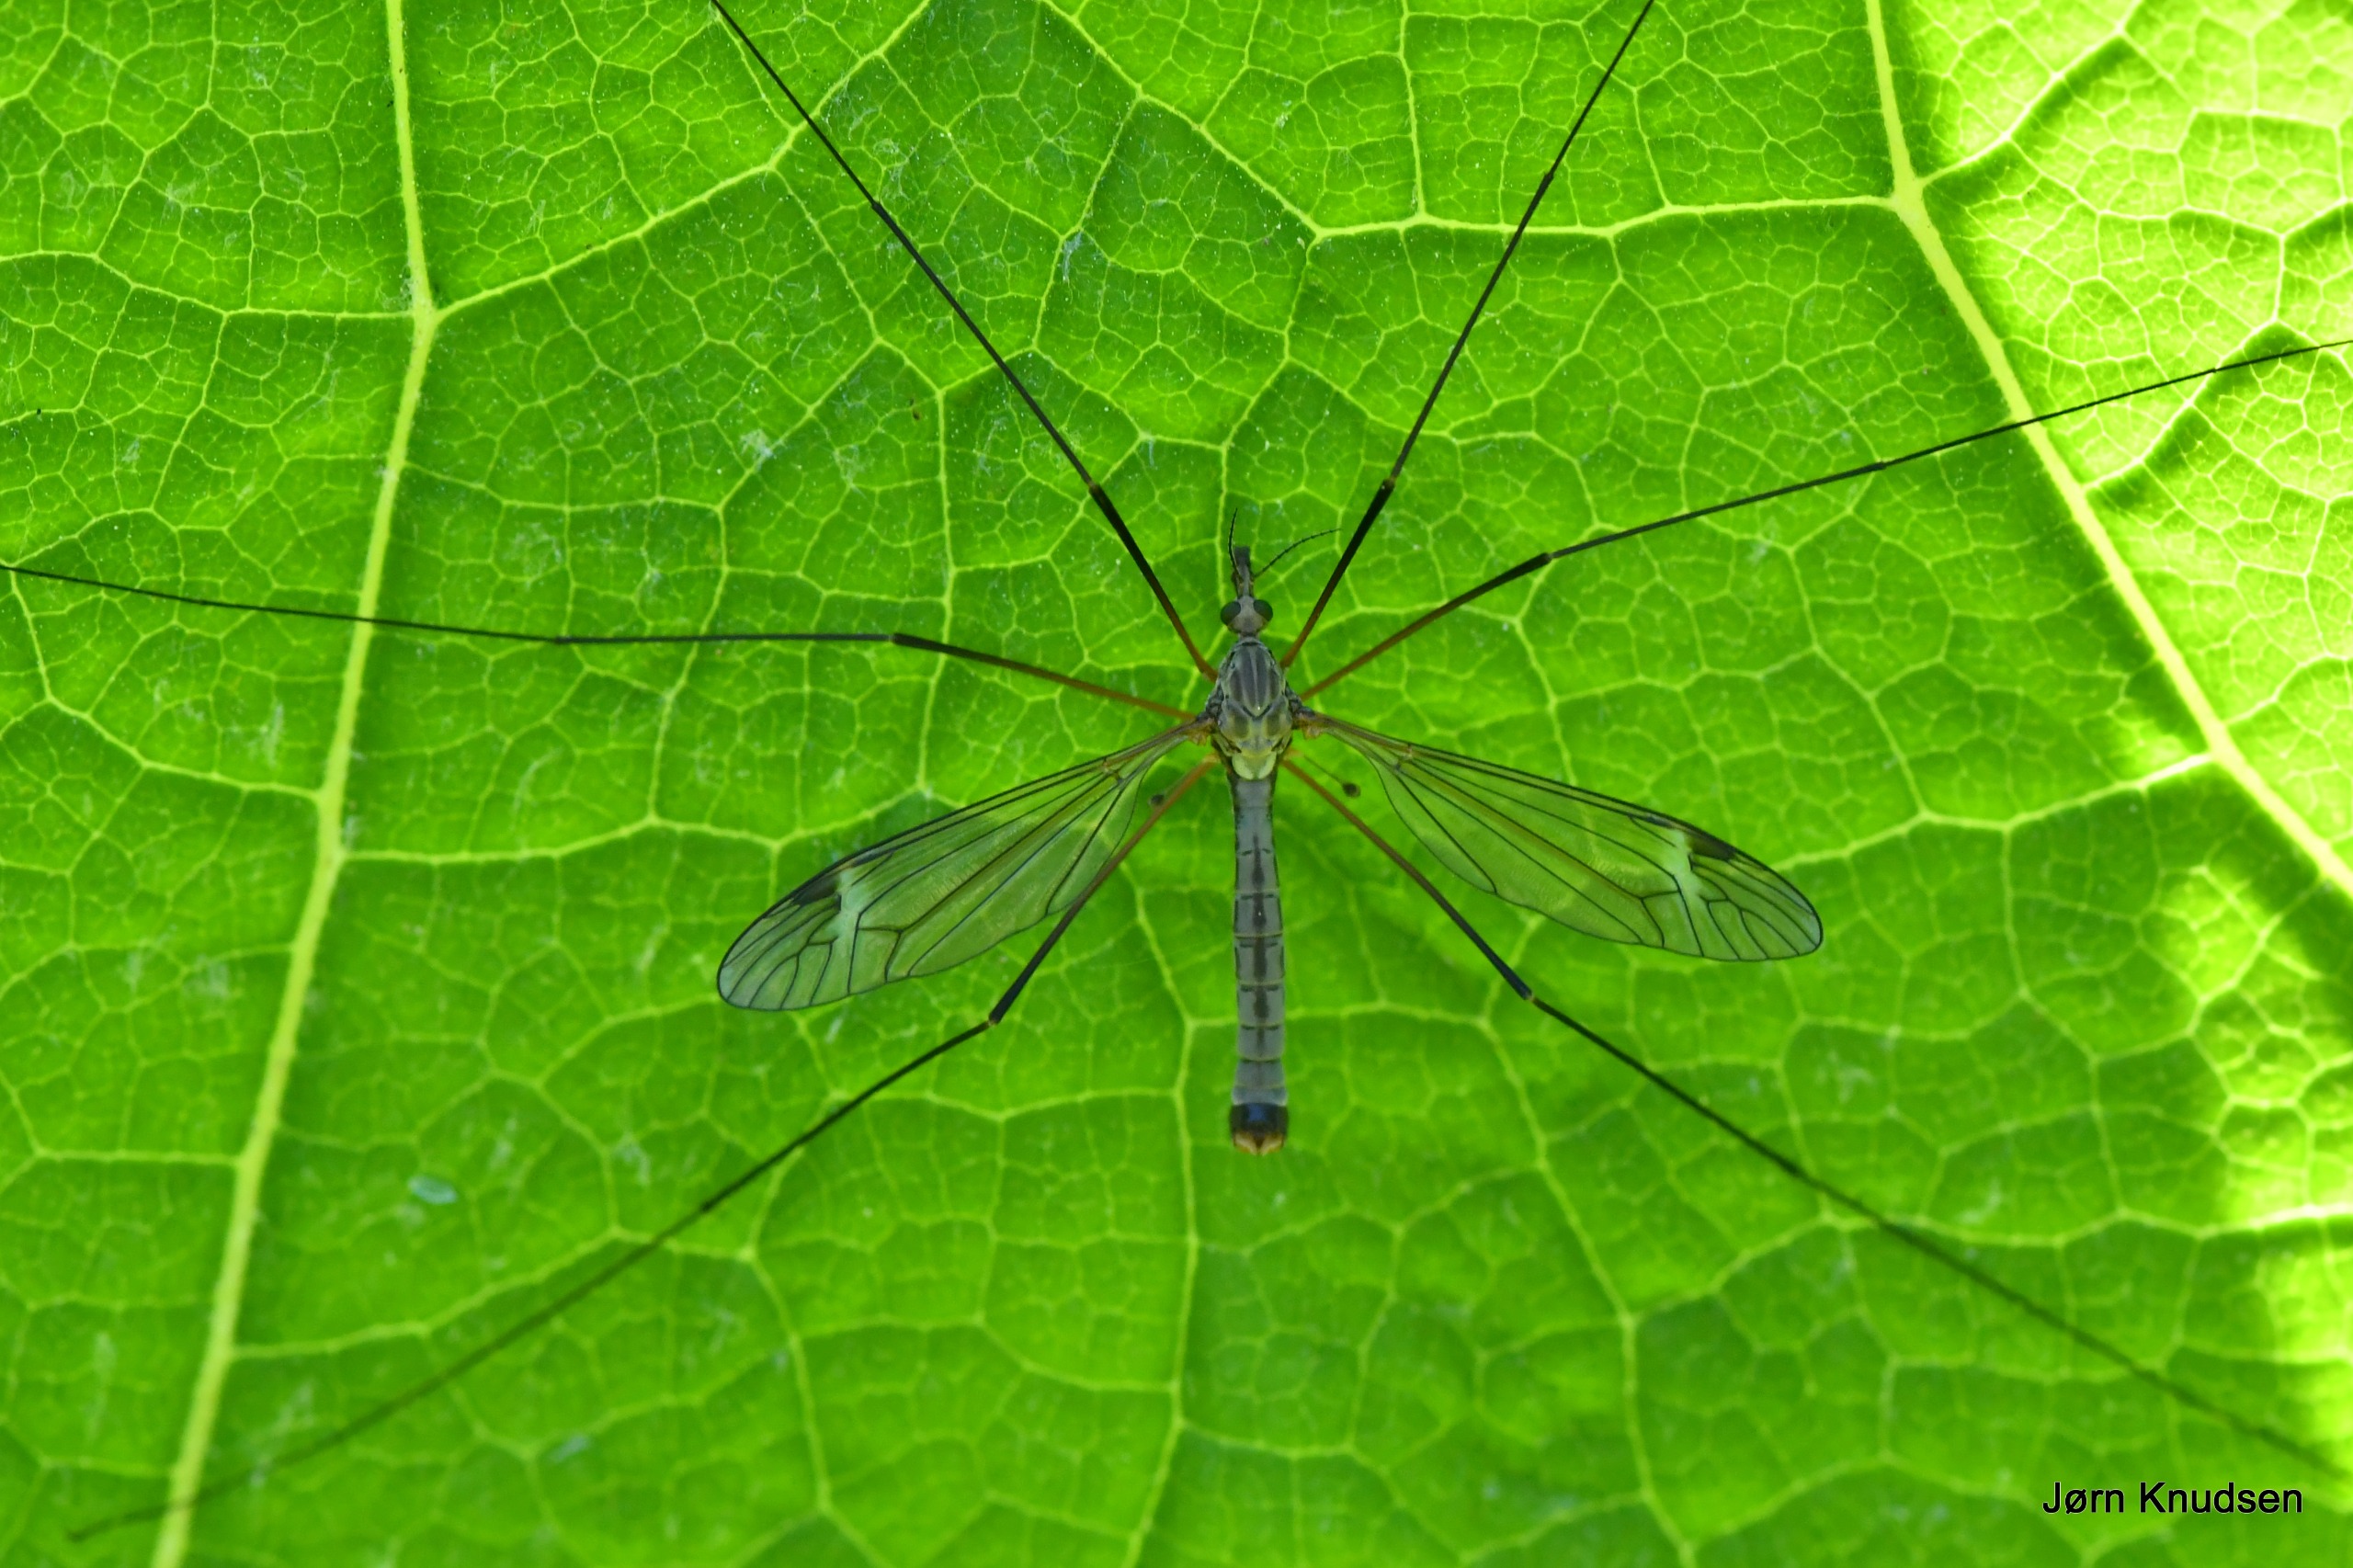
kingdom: Animalia
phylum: Arthropoda
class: Insecta
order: Diptera
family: Tipulidae
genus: Tipula
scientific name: Tipula luna
